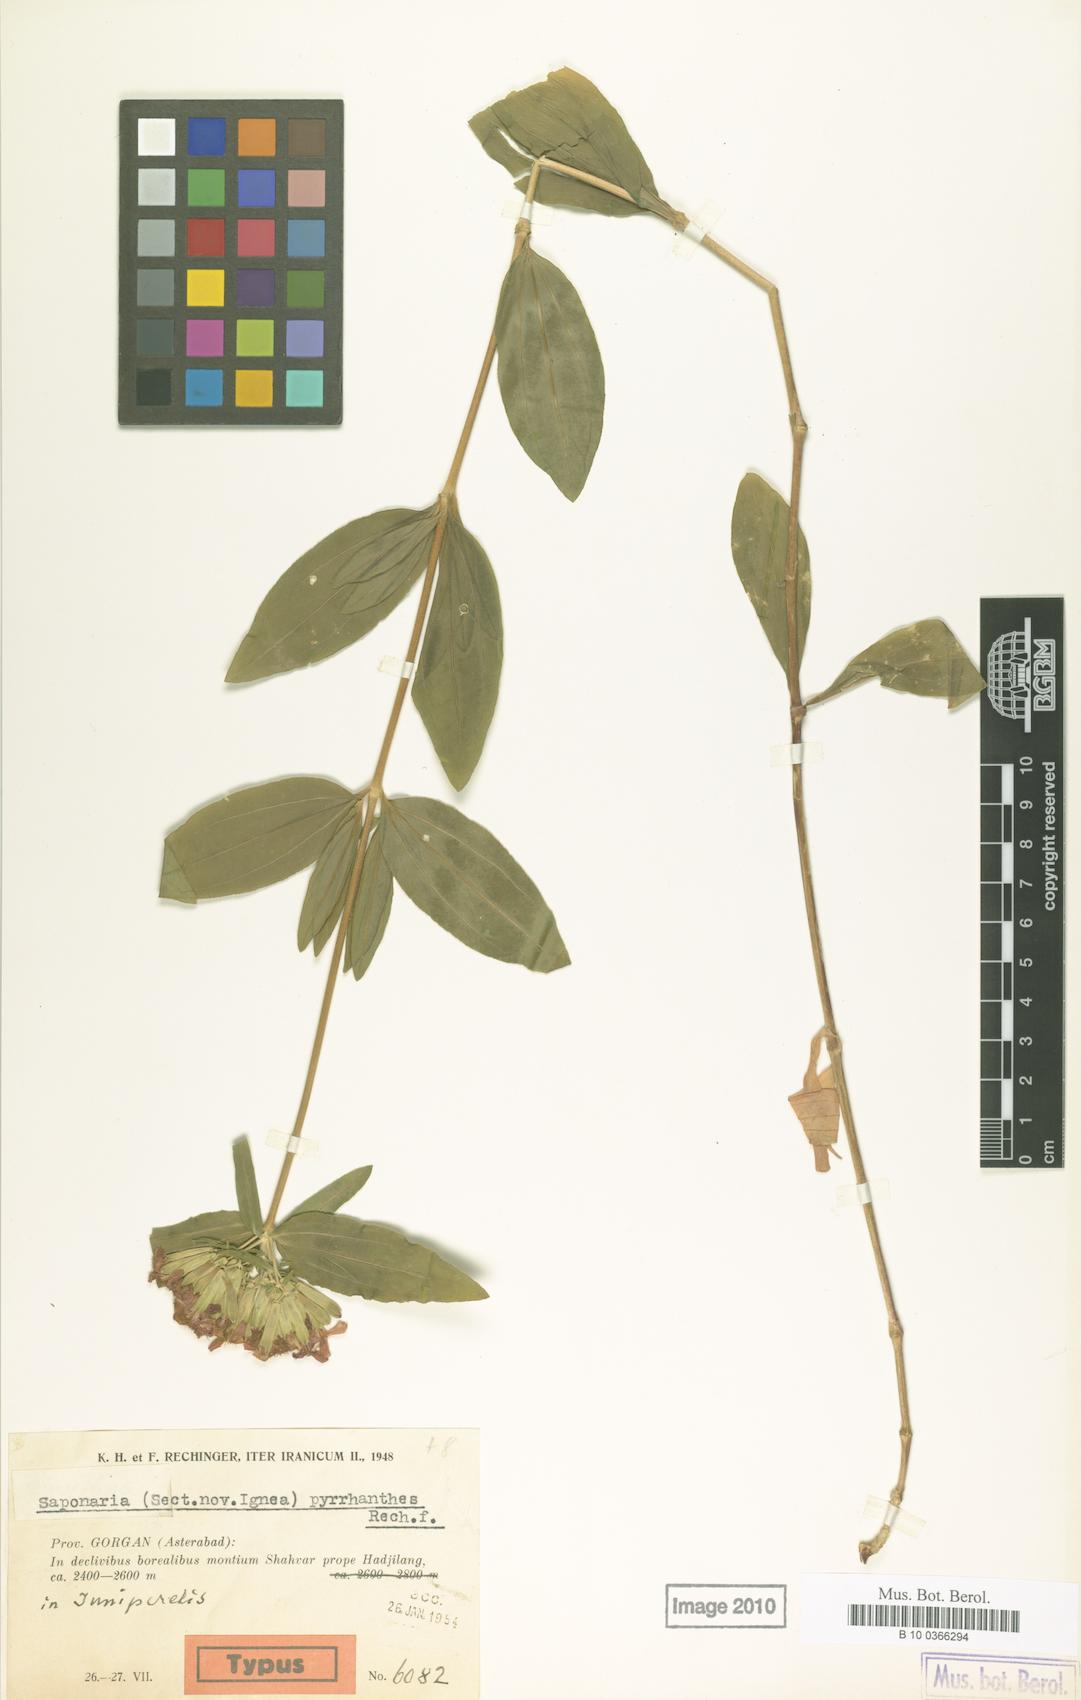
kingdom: Plantae
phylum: Tracheophyta
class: Magnoliopsida
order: Caryophyllales
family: Caryophyllaceae
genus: Saponaria
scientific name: Saponaria
